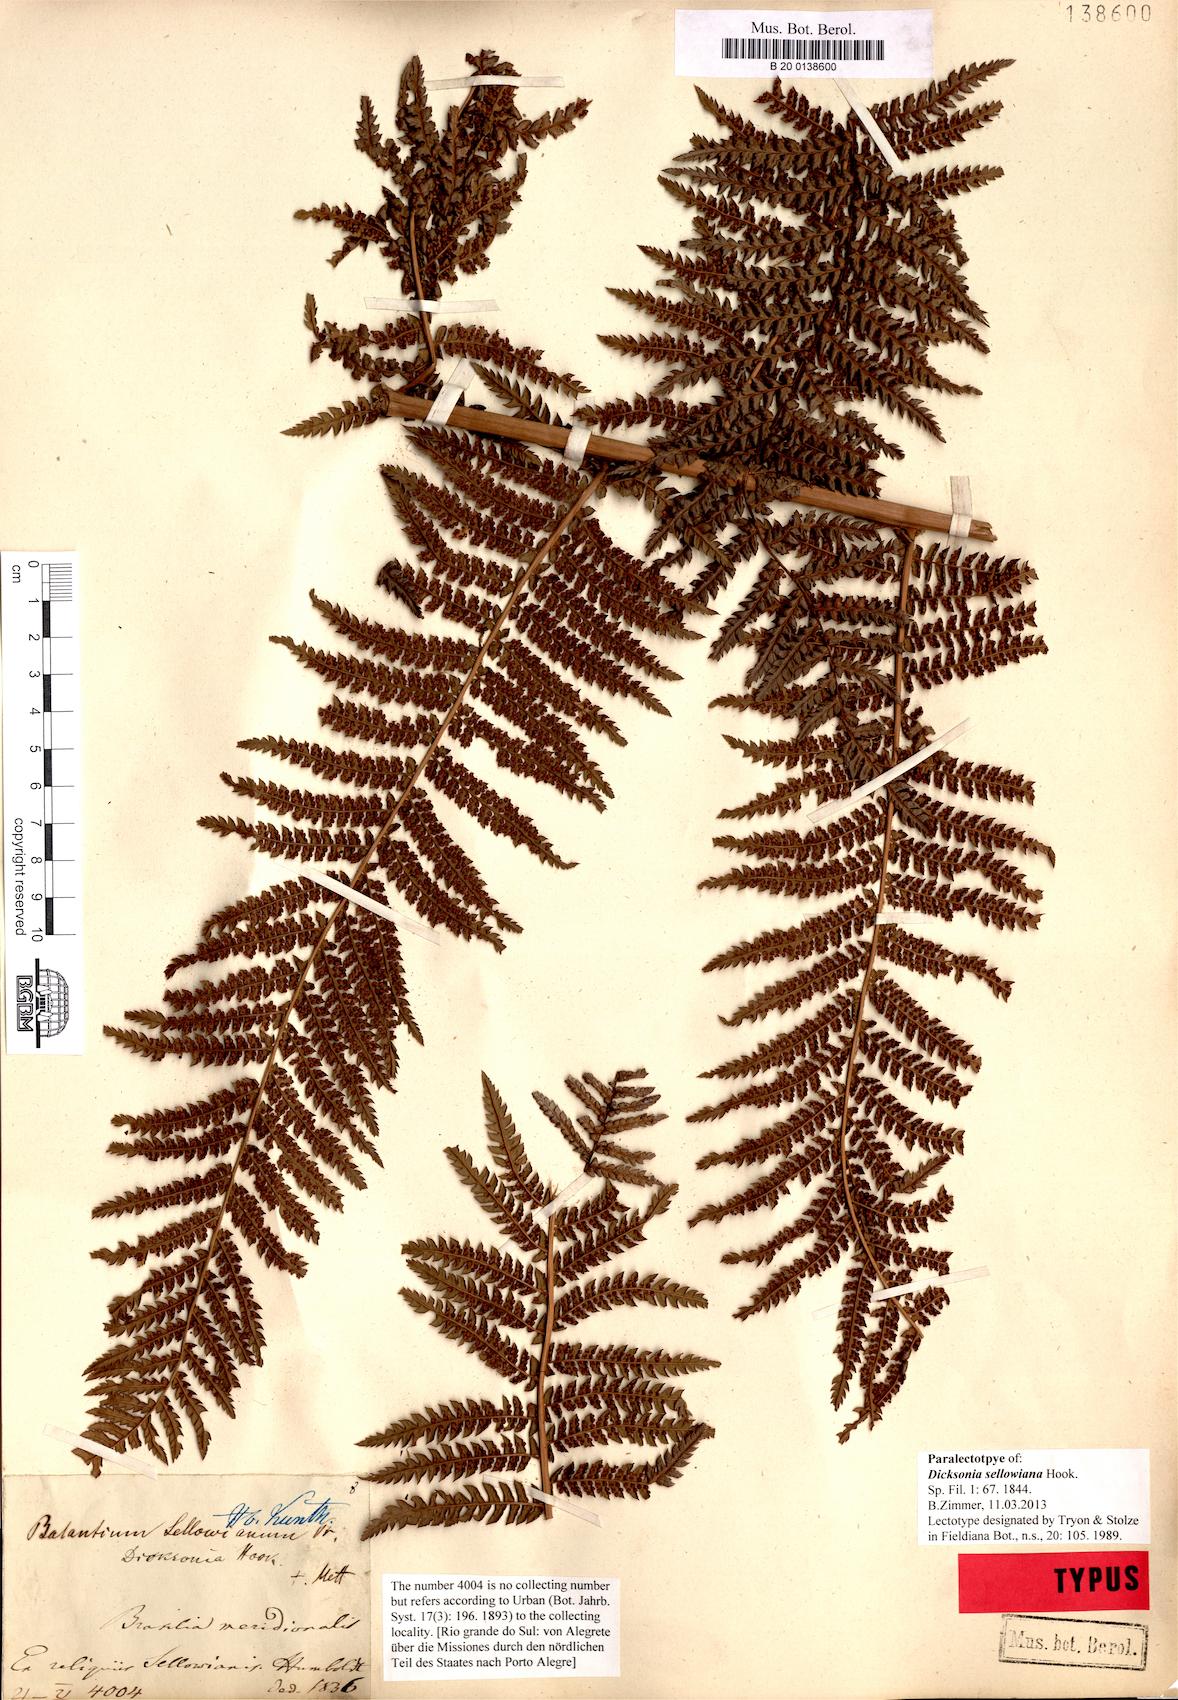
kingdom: Plantae
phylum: Tracheophyta
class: Polypodiopsida
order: Cyatheales
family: Dicksoniaceae
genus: Dicksonia
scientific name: Dicksonia sellowiana
